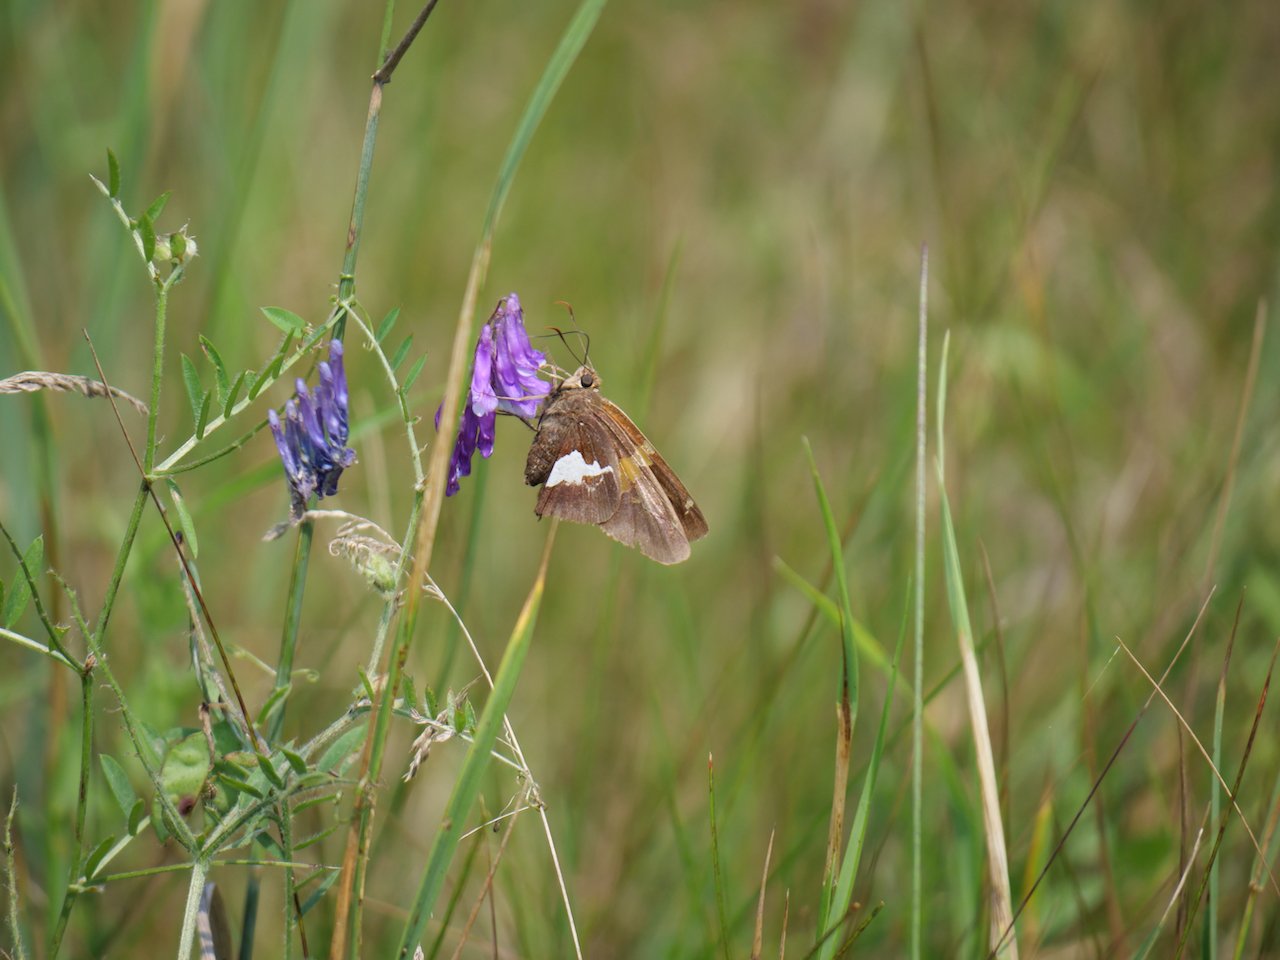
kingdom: Animalia
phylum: Arthropoda
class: Insecta
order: Lepidoptera
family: Hesperiidae
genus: Epargyreus
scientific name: Epargyreus clarus
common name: Silver-spotted Skipper
